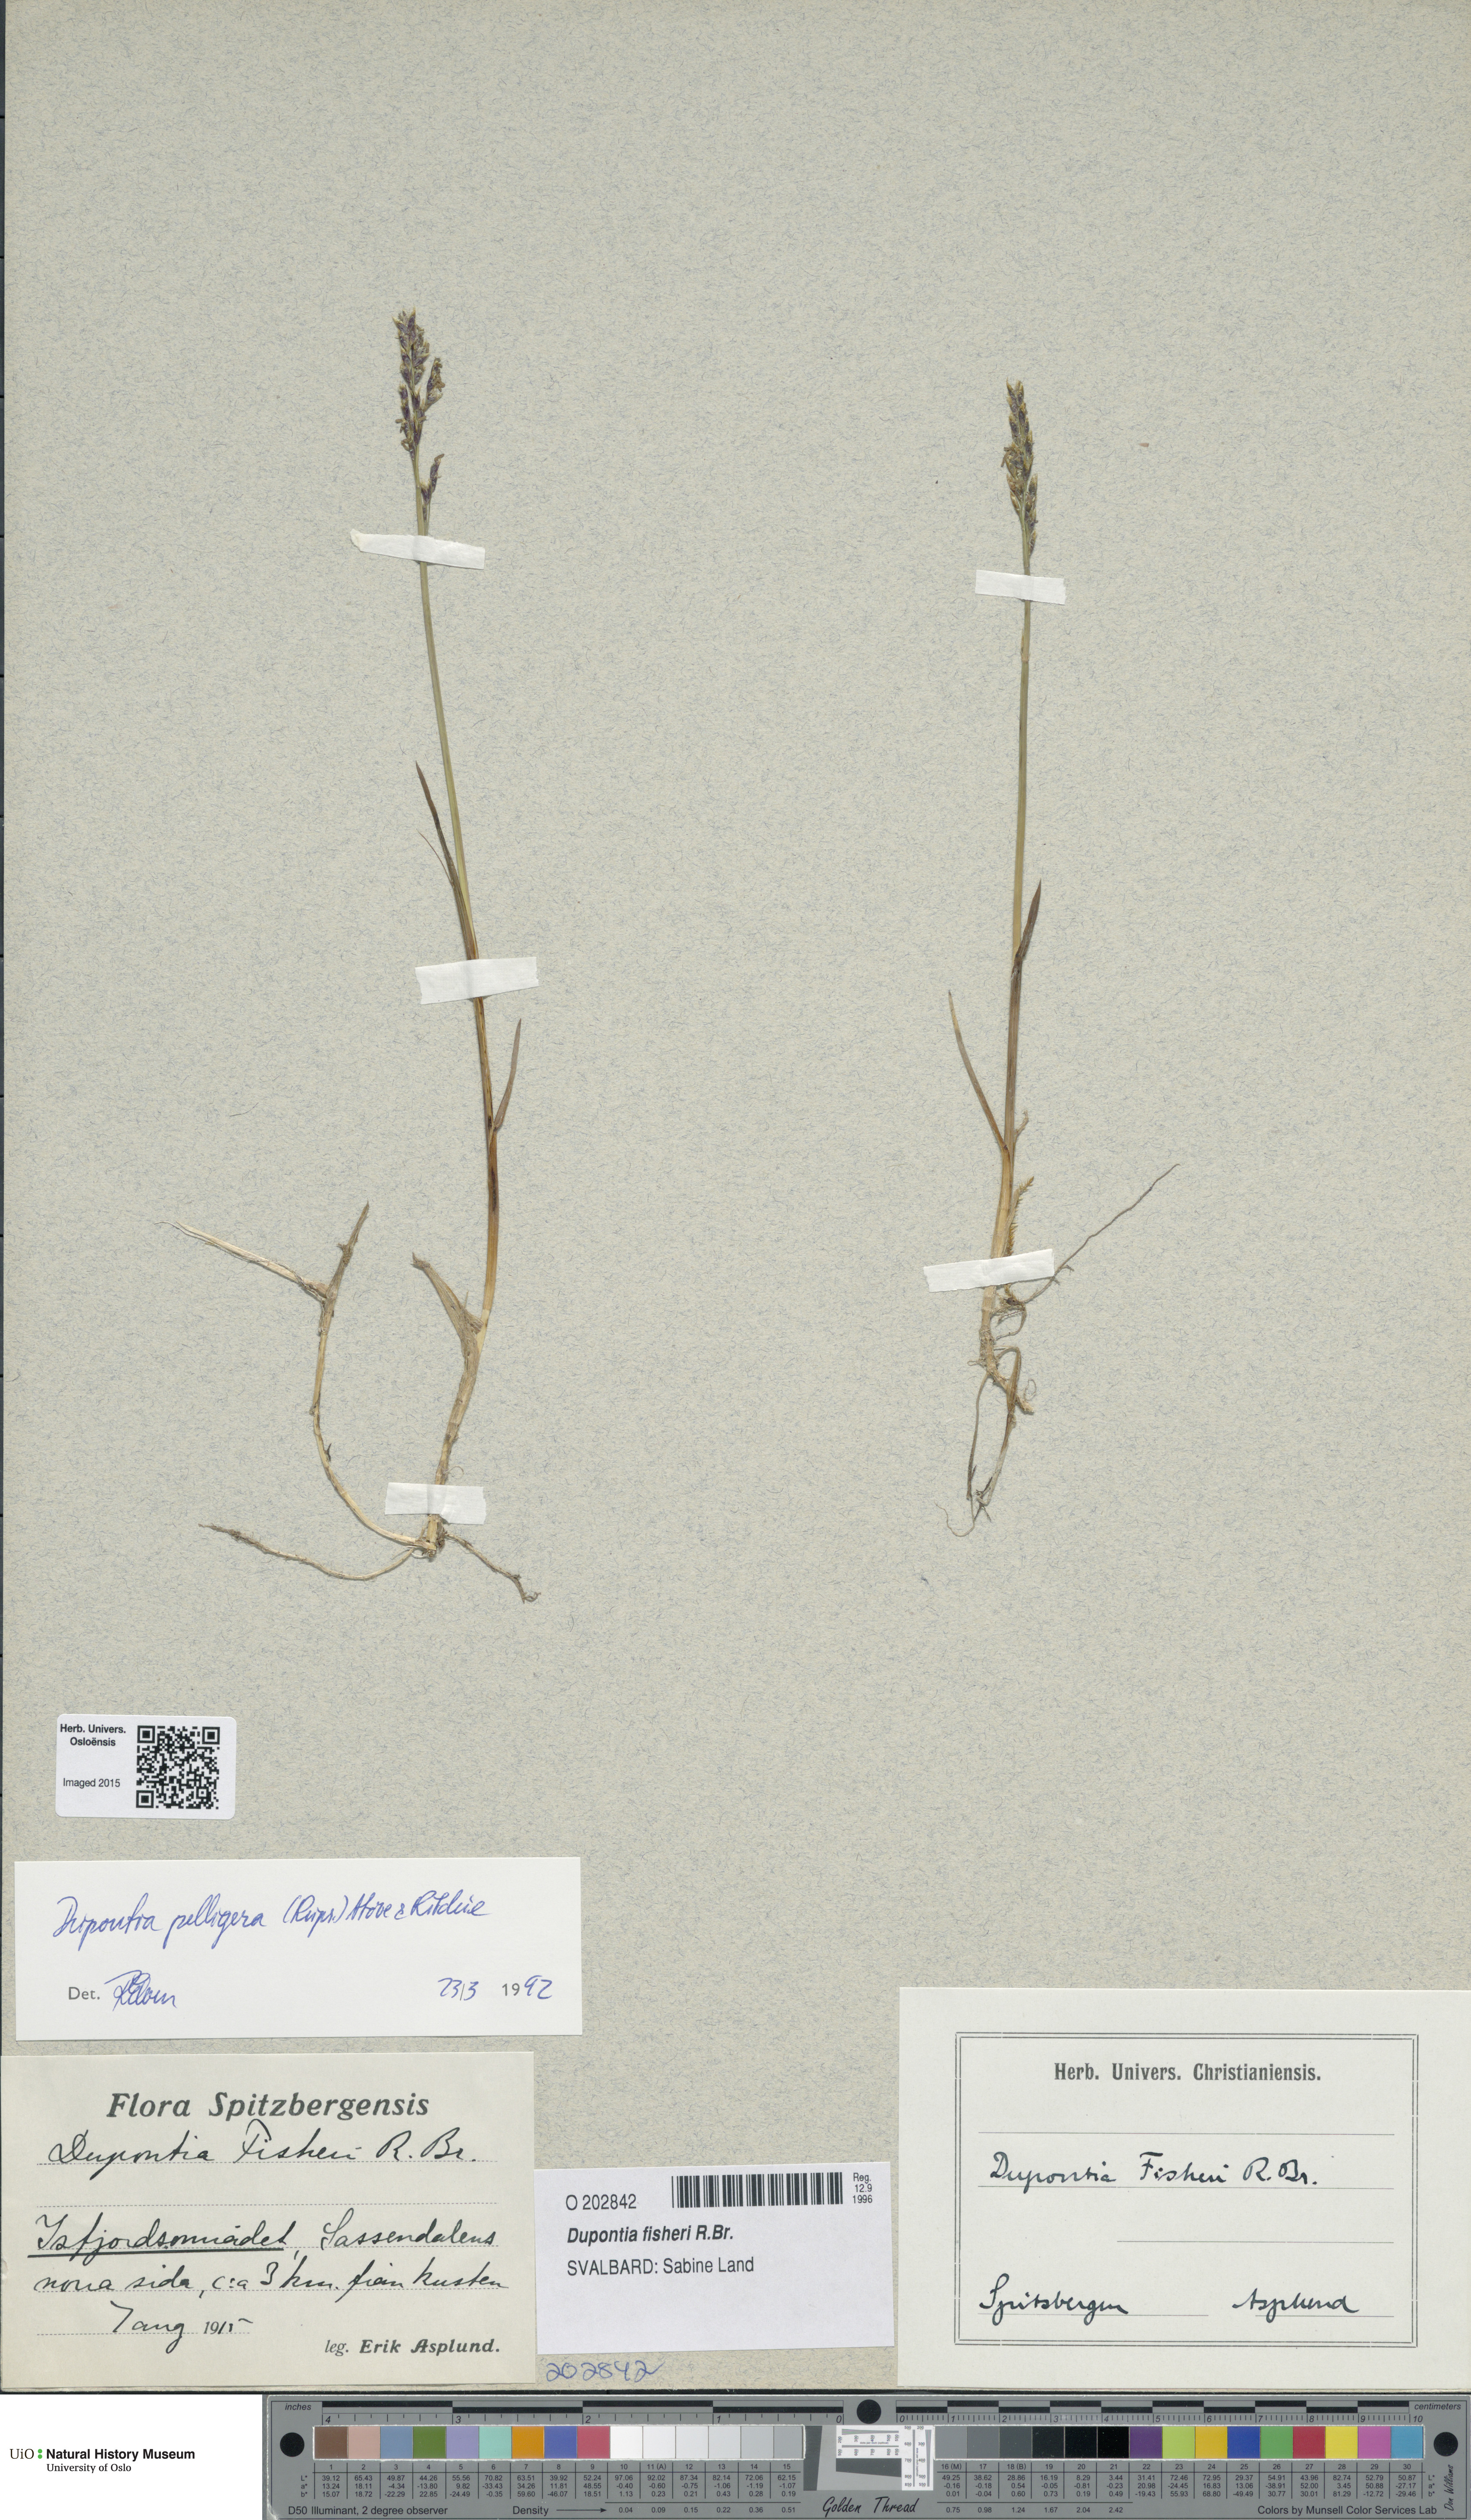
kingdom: Plantae
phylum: Tracheophyta
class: Liliopsida
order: Poales
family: Poaceae
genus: Dupontia
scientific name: Dupontia fisheri
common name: Tundra grass
